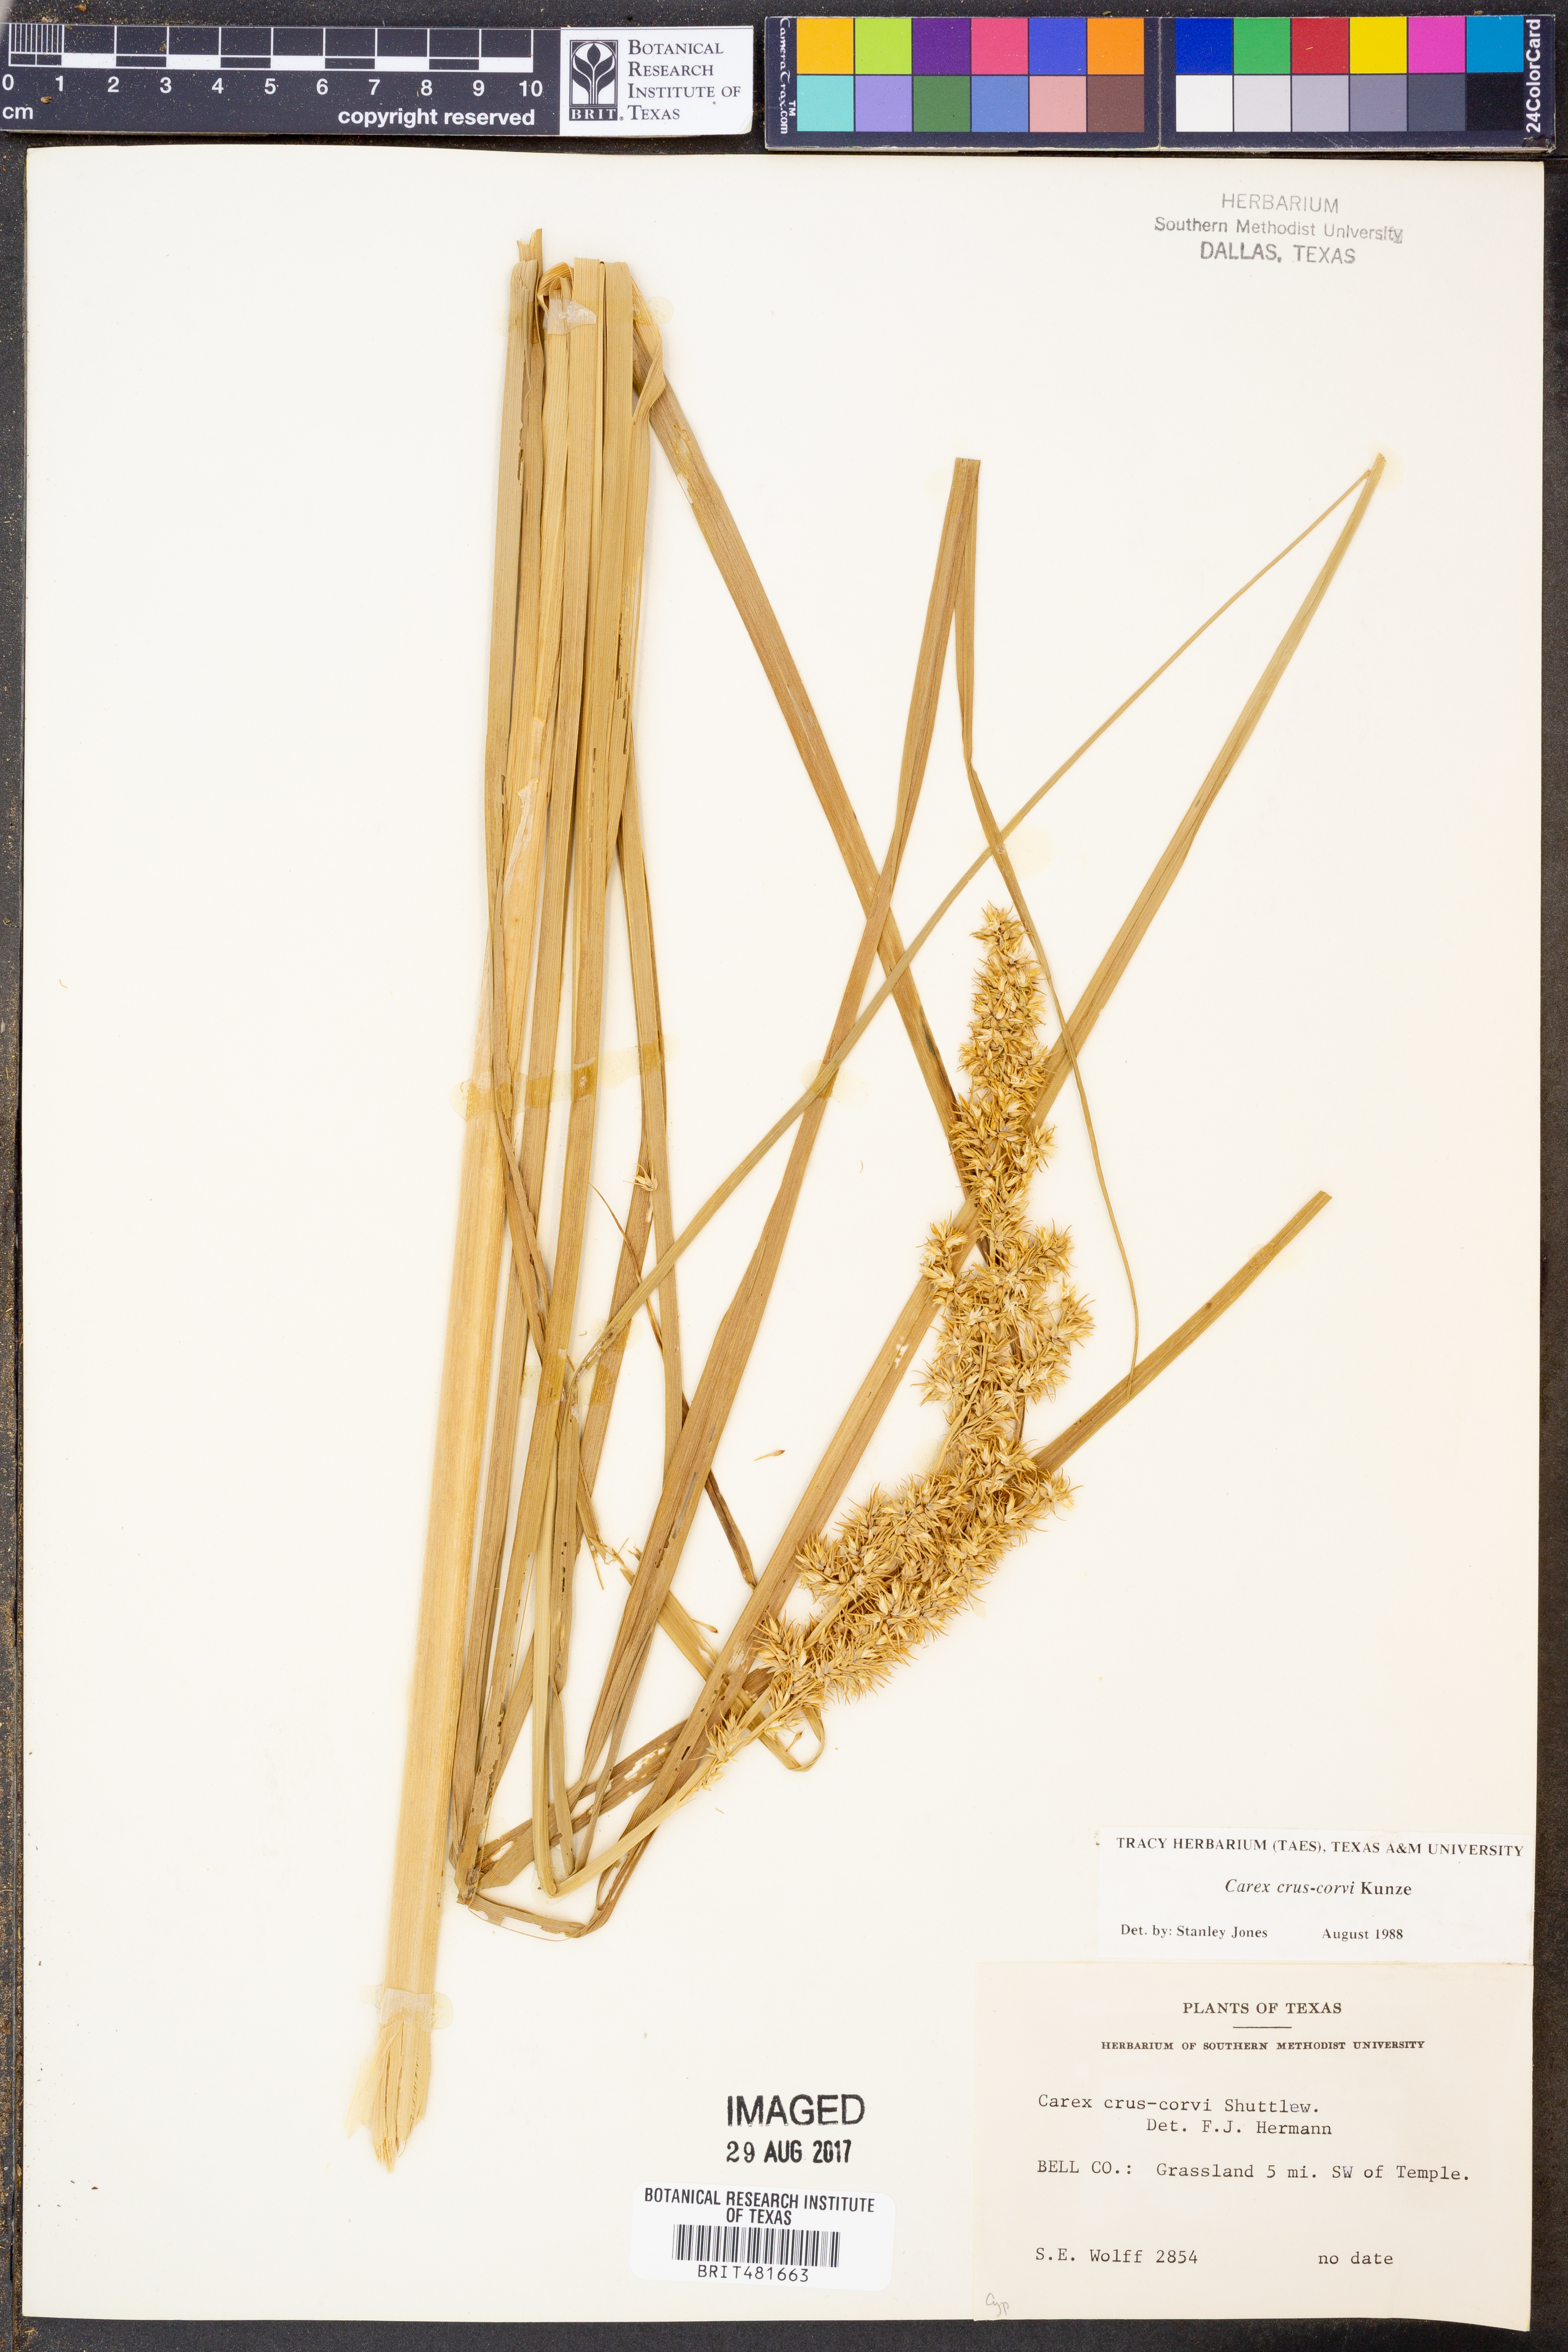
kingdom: Plantae
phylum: Tracheophyta
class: Liliopsida
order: Poales
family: Cyperaceae
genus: Carex
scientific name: Carex crus-corvi
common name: Crow-spur sedge
